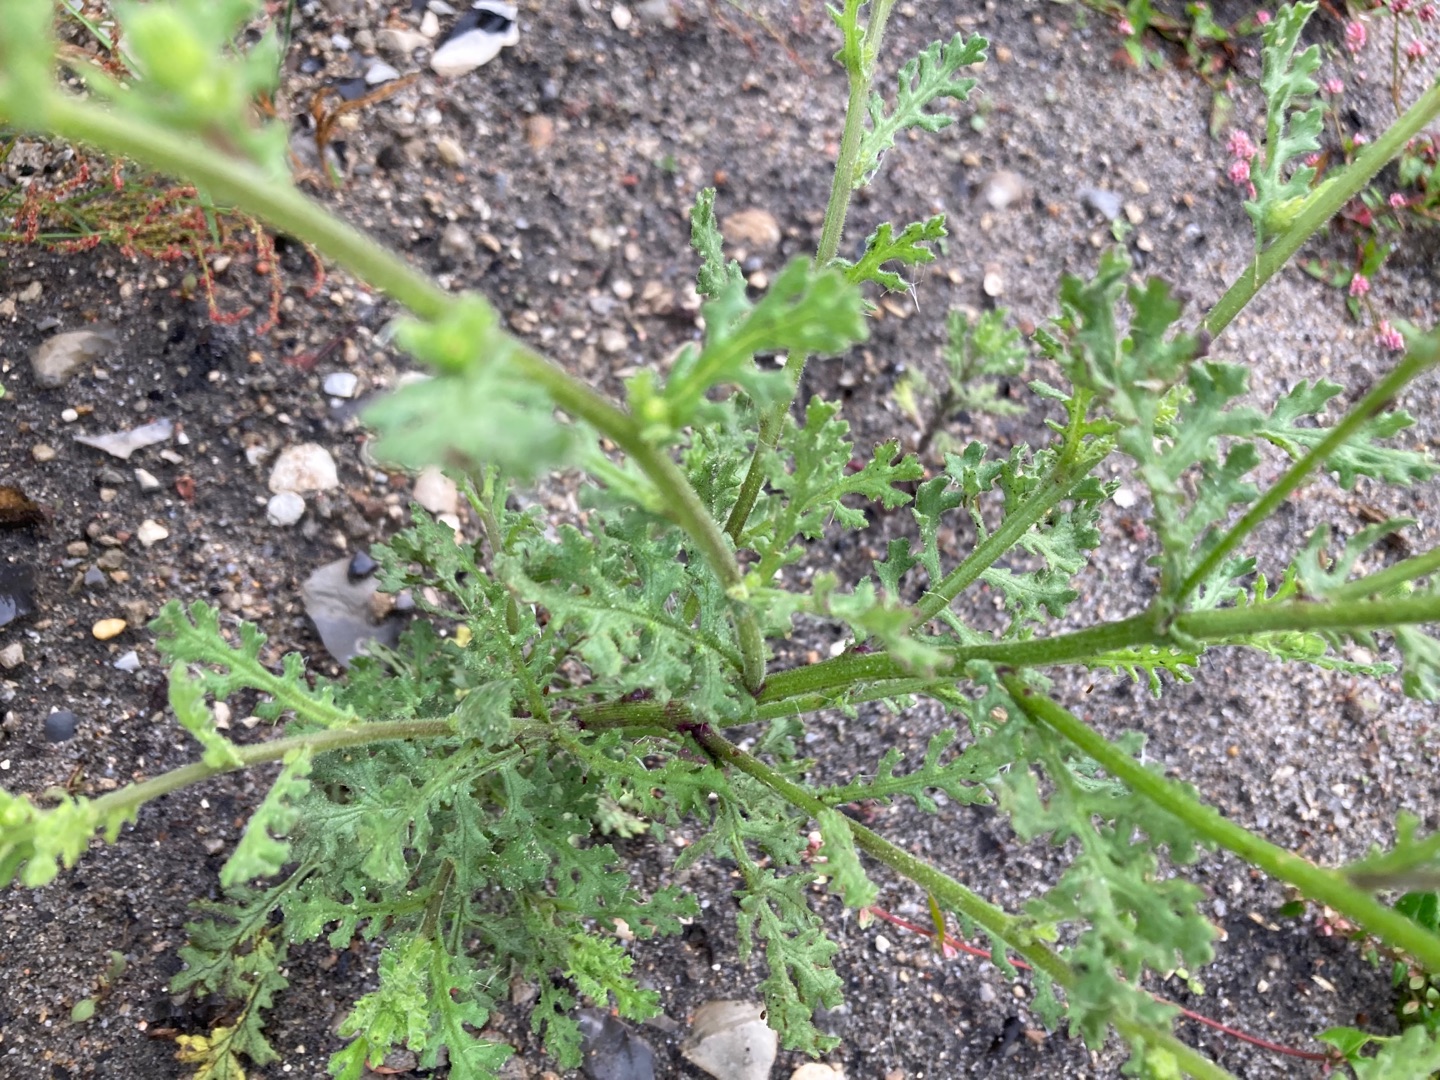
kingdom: Plantae
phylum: Tracheophyta
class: Magnoliopsida
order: Asterales
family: Asteraceae
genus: Senecio
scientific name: Senecio viscosus
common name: Klæbrig brandbæger
